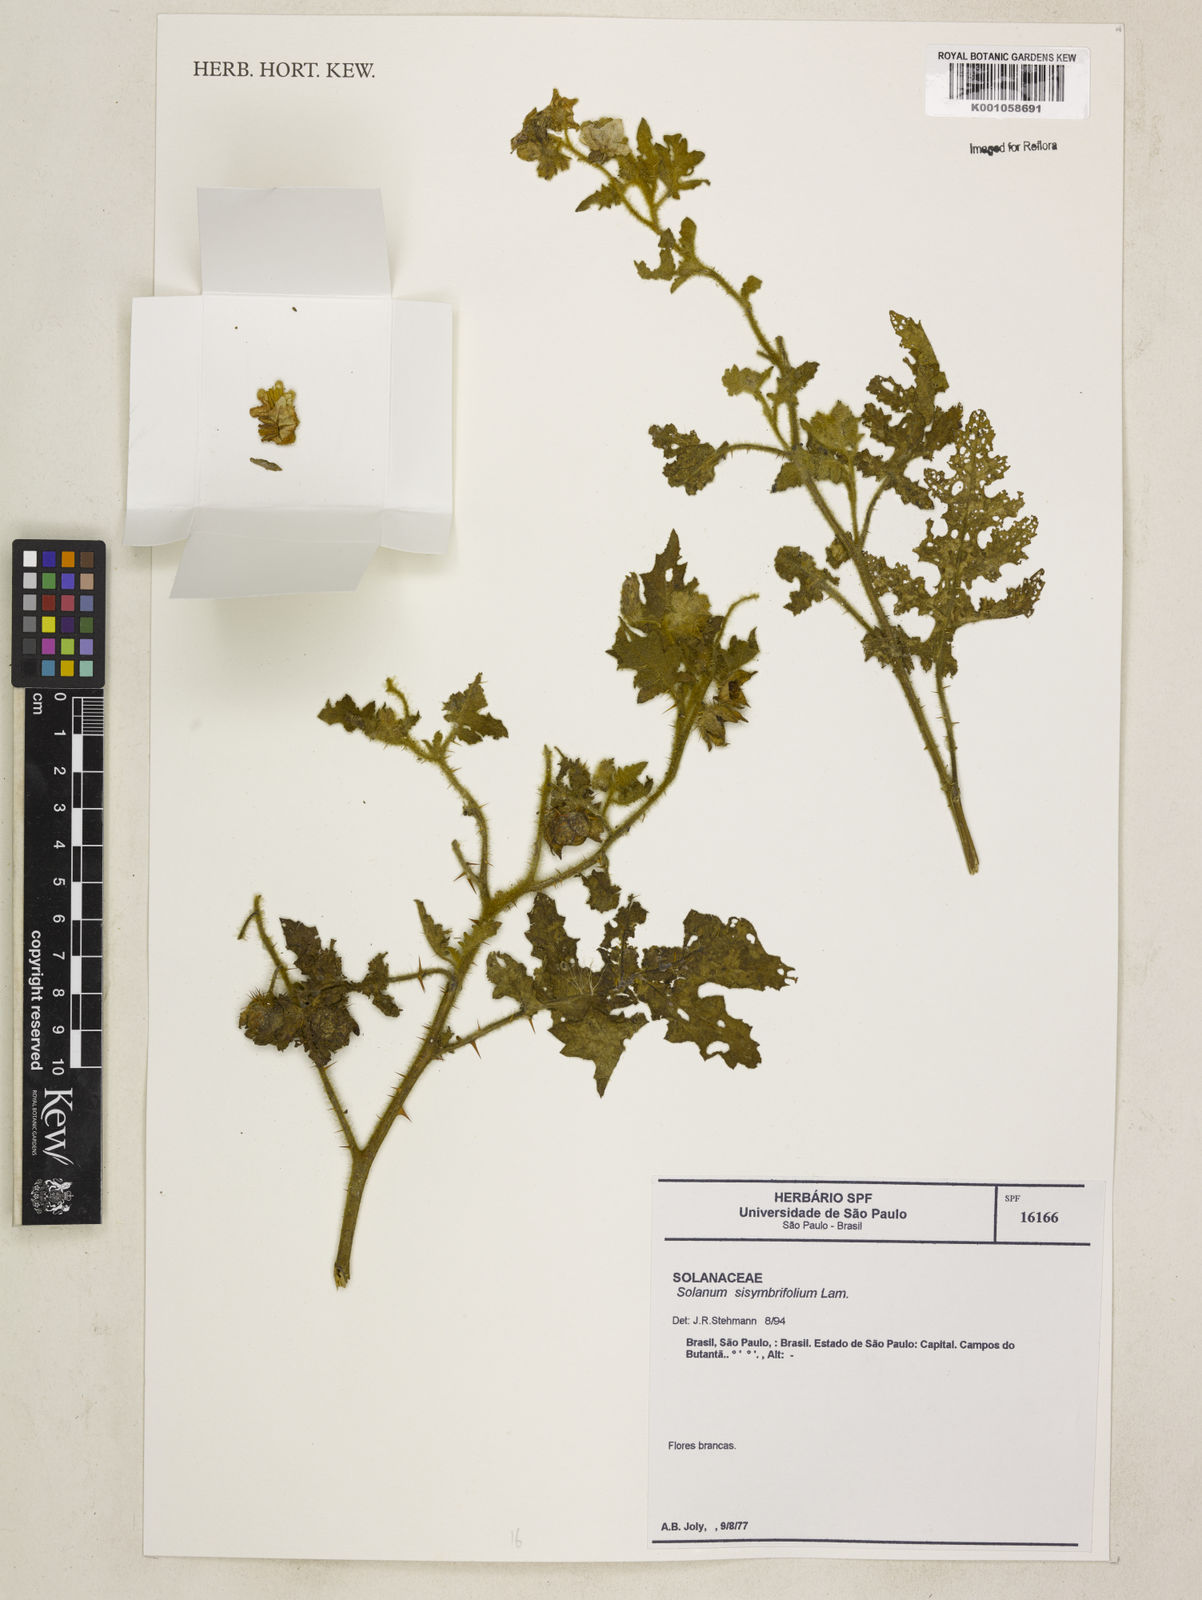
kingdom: Plantae
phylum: Tracheophyta
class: Magnoliopsida
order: Solanales
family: Solanaceae
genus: Solanum
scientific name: Solanum sisymbriifolium
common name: Red buffalo-bur
